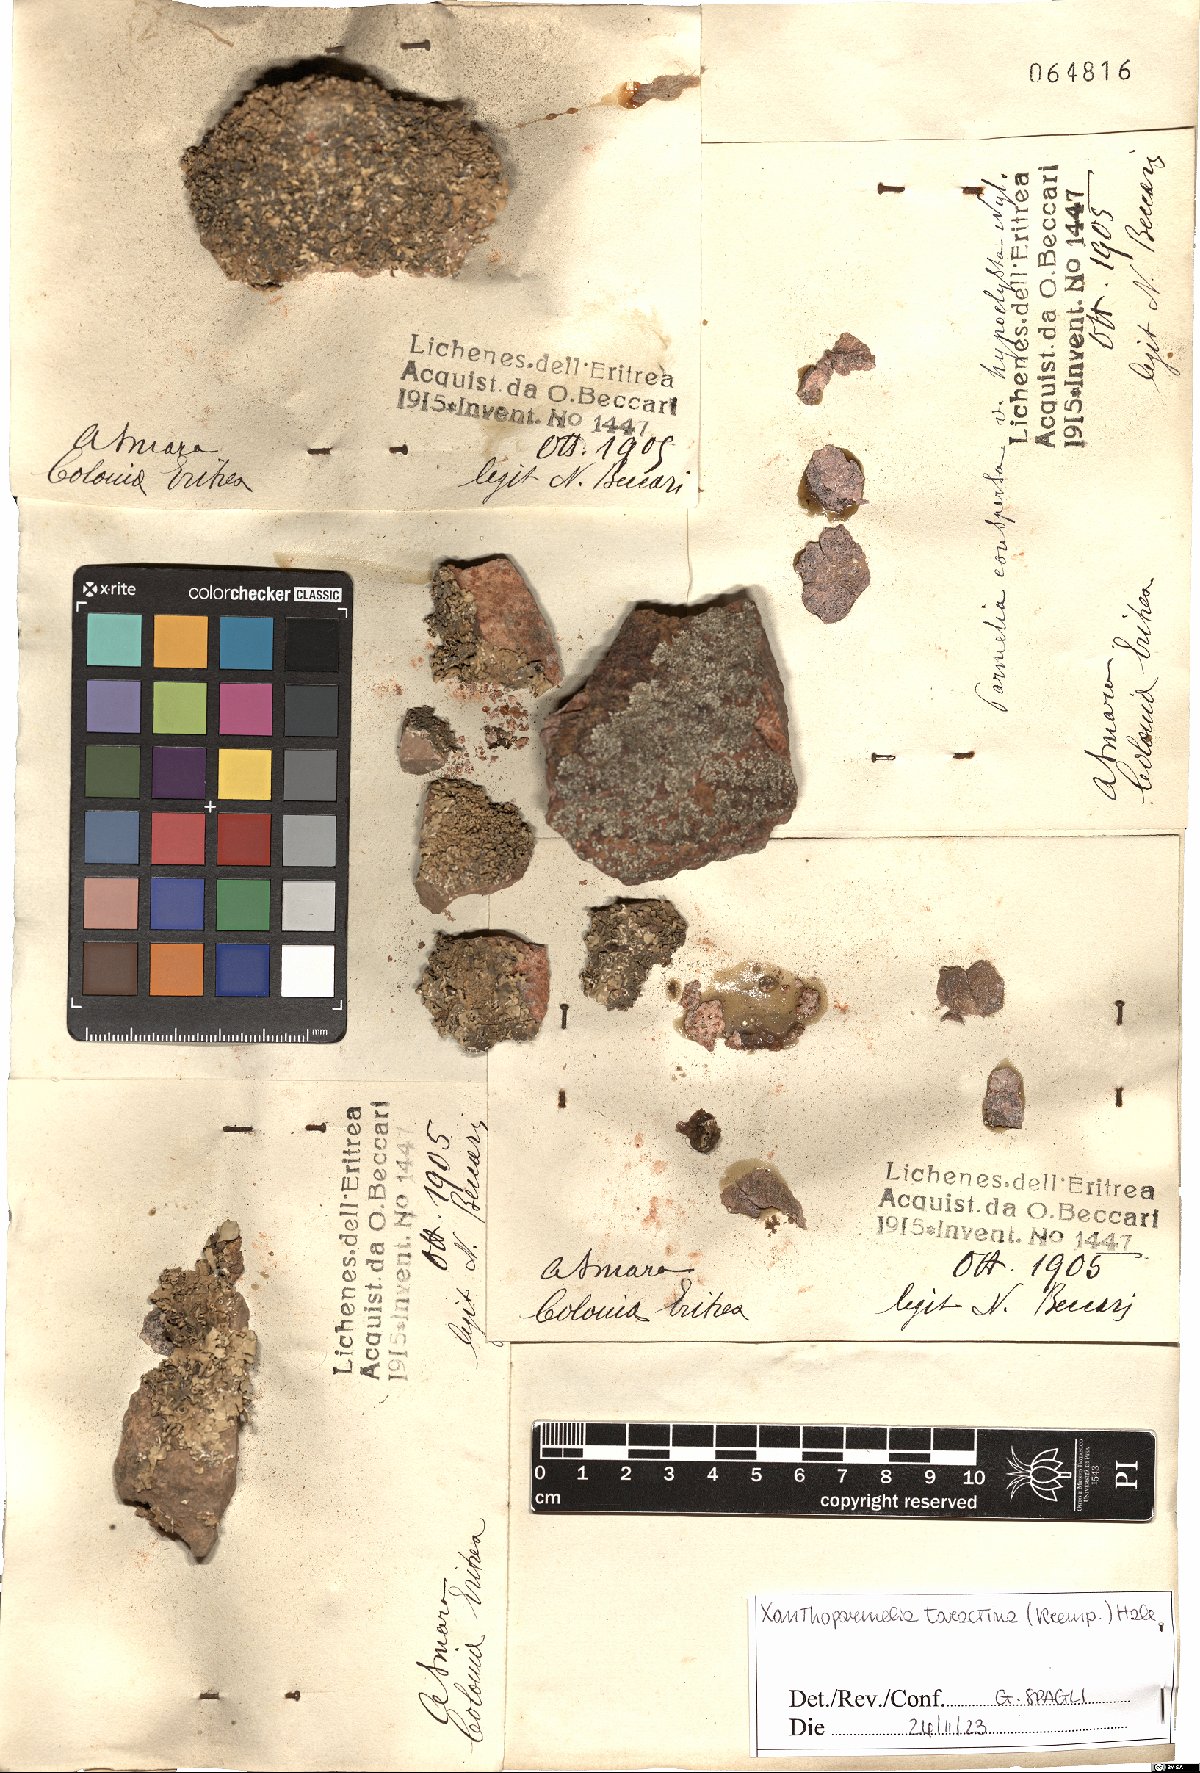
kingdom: Fungi
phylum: Ascomycota
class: Lecanoromycetes
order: Lecanorales
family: Parmeliaceae
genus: Xanthoparmelia
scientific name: Xanthoparmelia taractica
